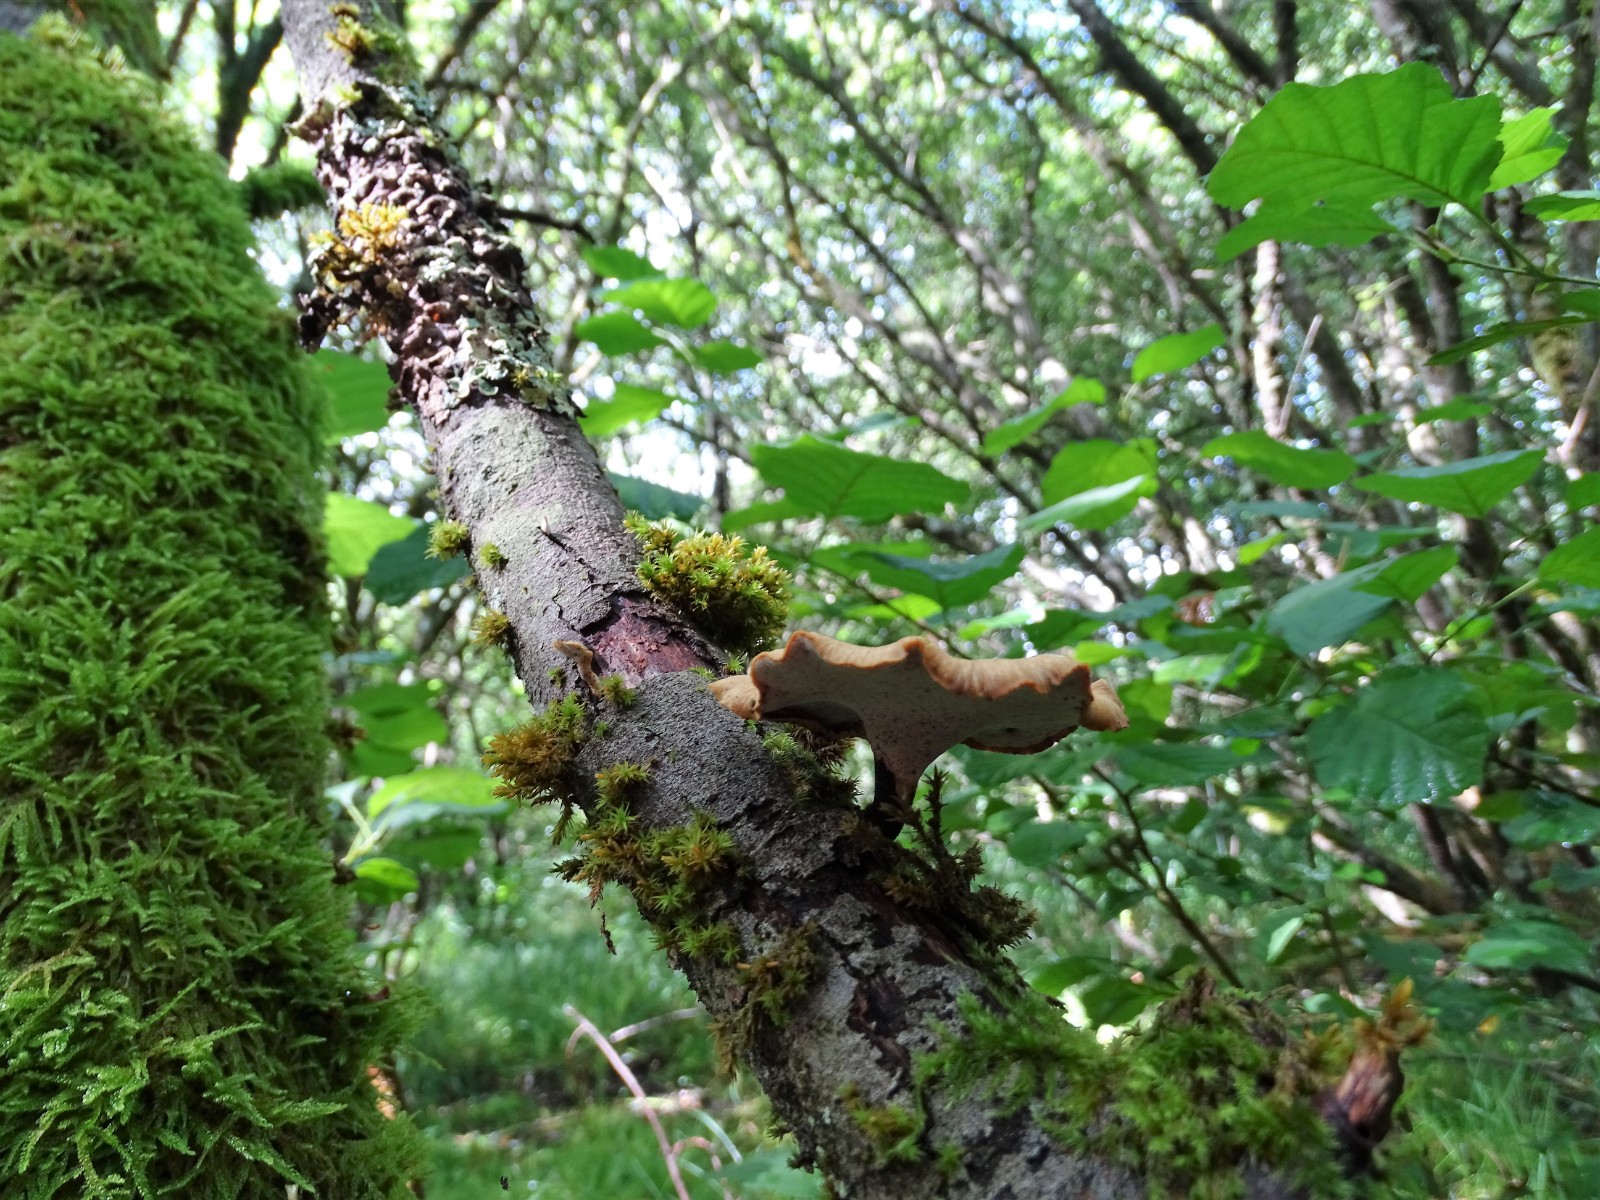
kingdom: Fungi
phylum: Basidiomycota
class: Agaricomycetes
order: Polyporales
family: Polyporaceae
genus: Cerioporus
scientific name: Cerioporus varius
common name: foranderlig stilkporesvamp
